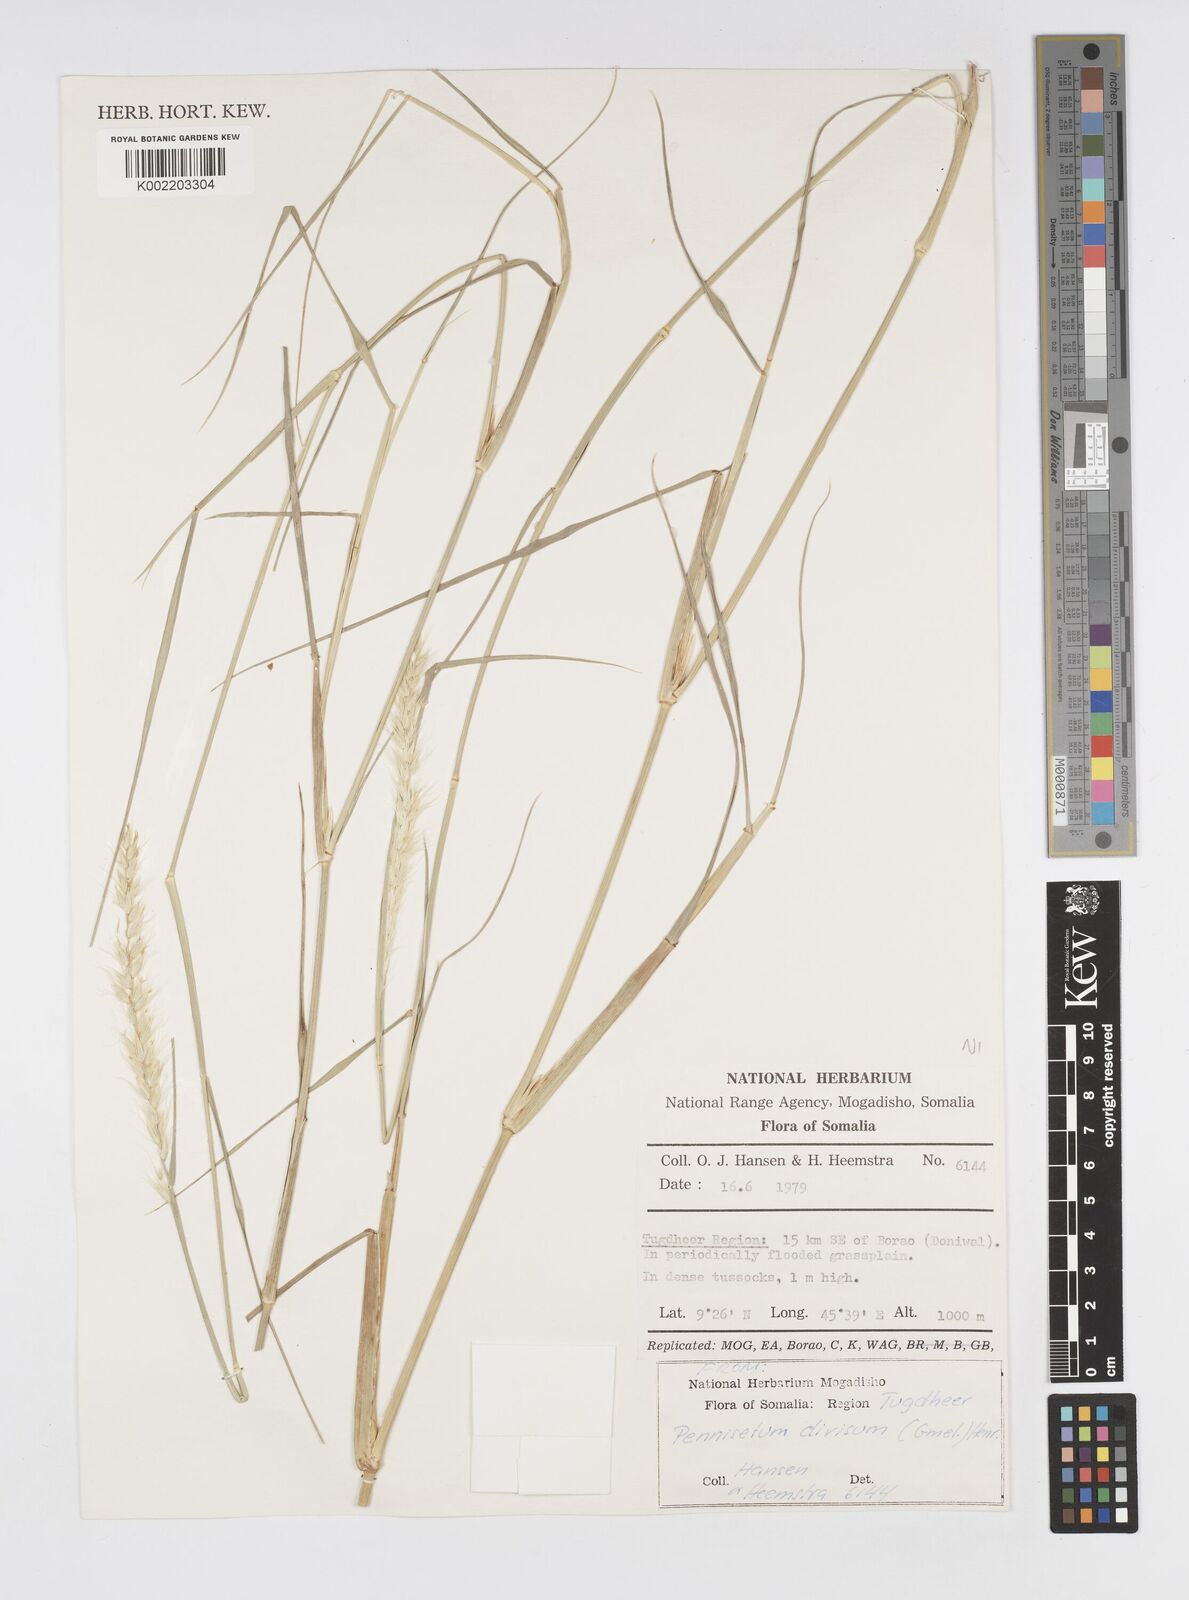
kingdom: Plantae
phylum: Tracheophyta
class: Liliopsida
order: Poales
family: Poaceae
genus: Cenchrus
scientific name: Cenchrus divisus
